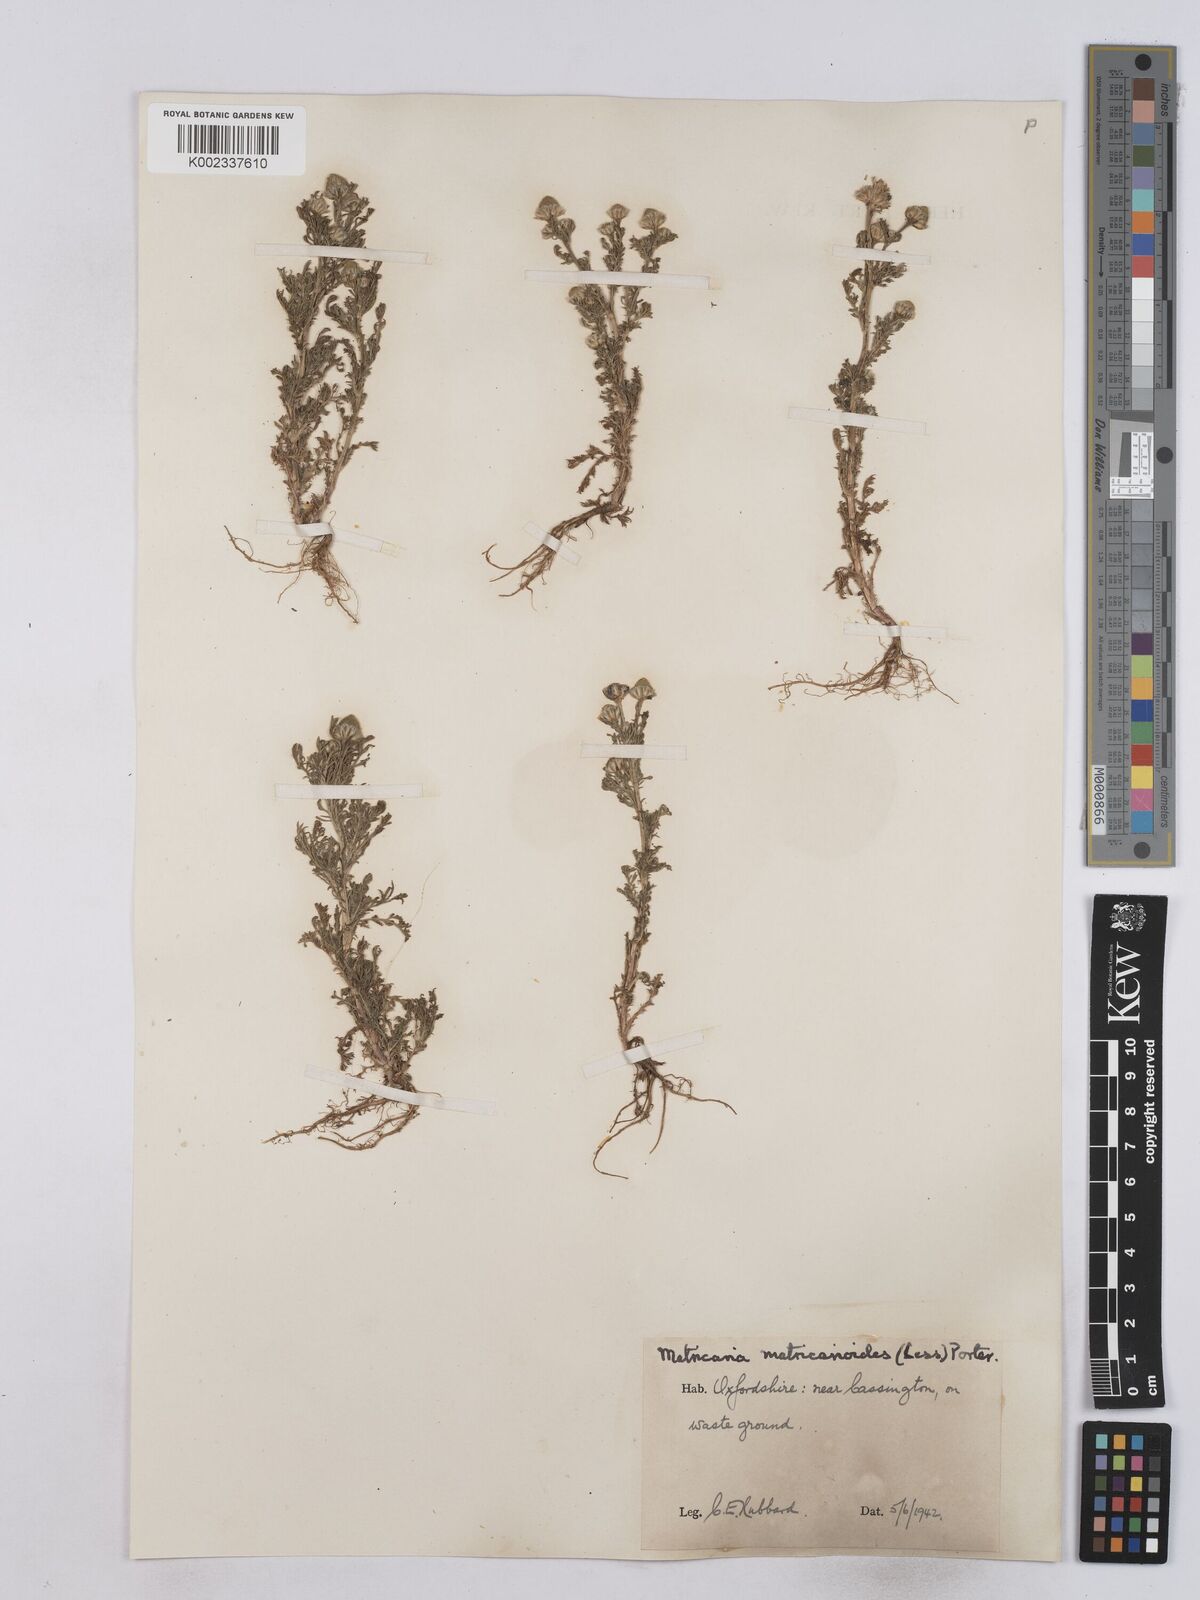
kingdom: Plantae
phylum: Tracheophyta
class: Magnoliopsida
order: Asterales
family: Asteraceae
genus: Matricaria
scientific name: Matricaria discoidea
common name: Disc mayweed
